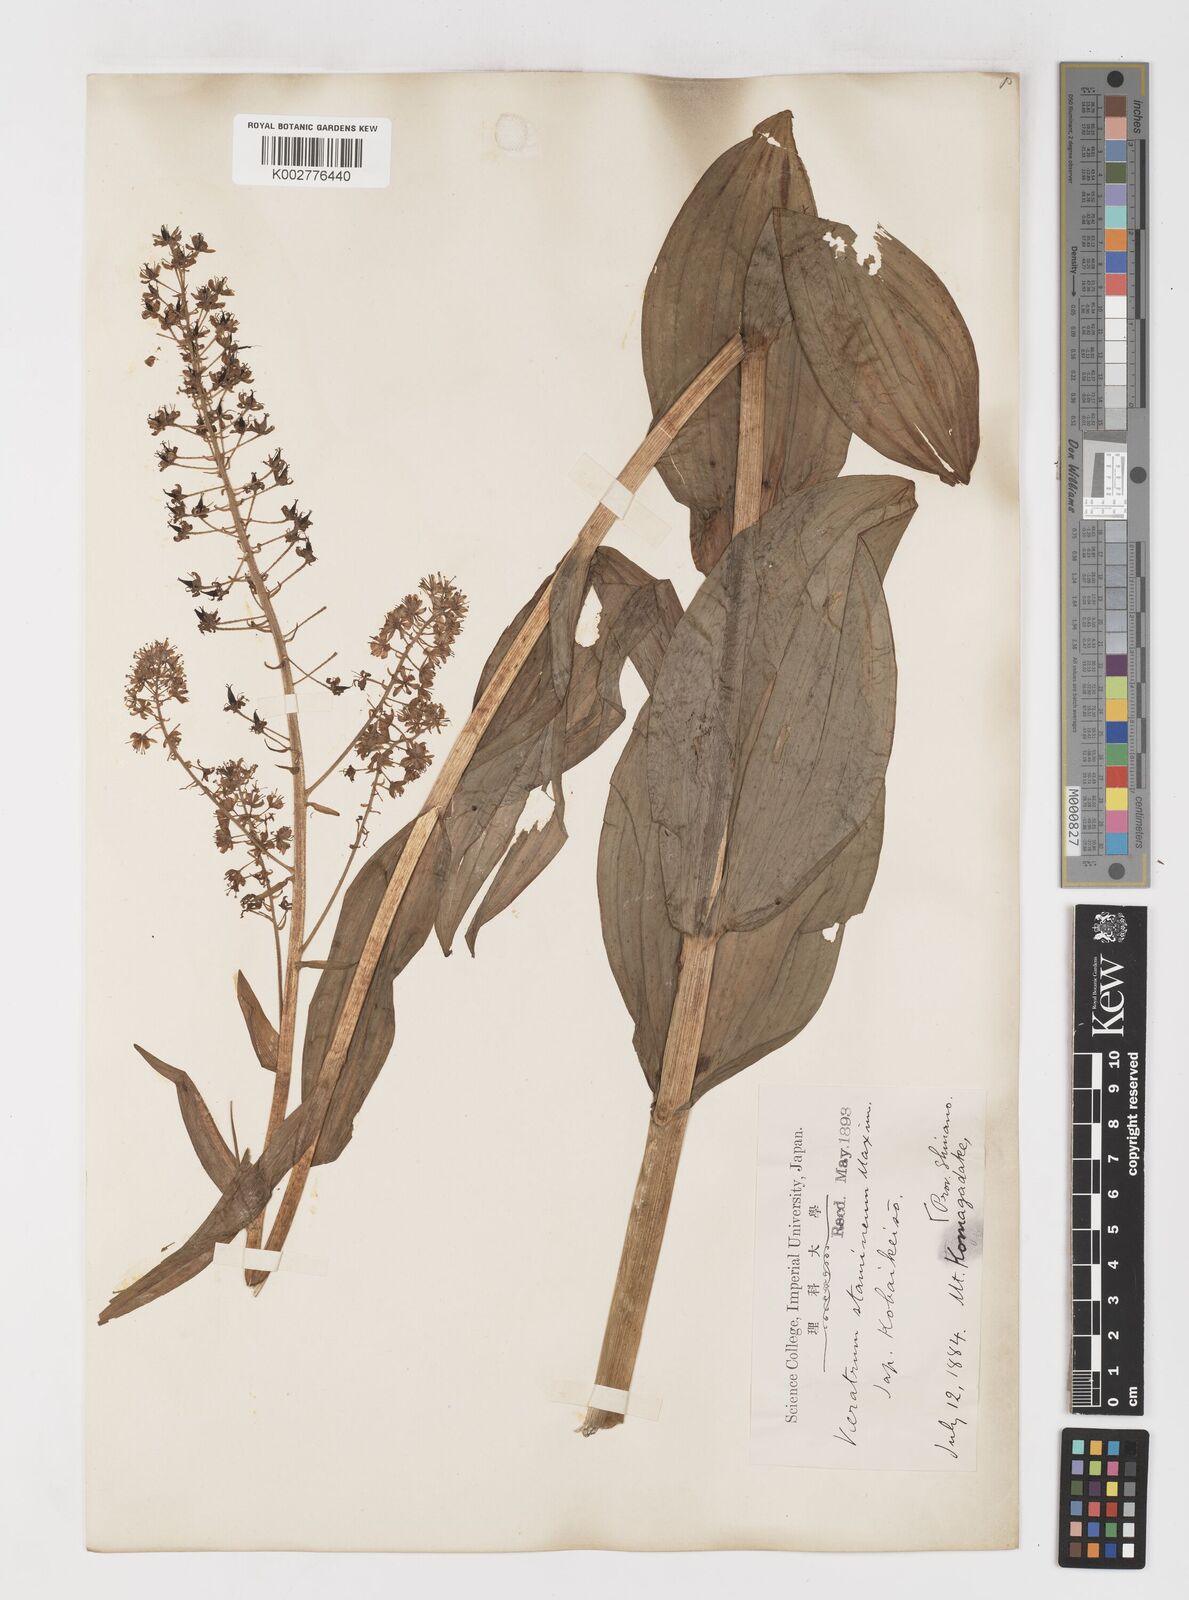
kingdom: Plantae
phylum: Tracheophyta
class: Liliopsida
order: Liliales
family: Melanthiaceae
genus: Veratrum
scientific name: Veratrum stamineum
